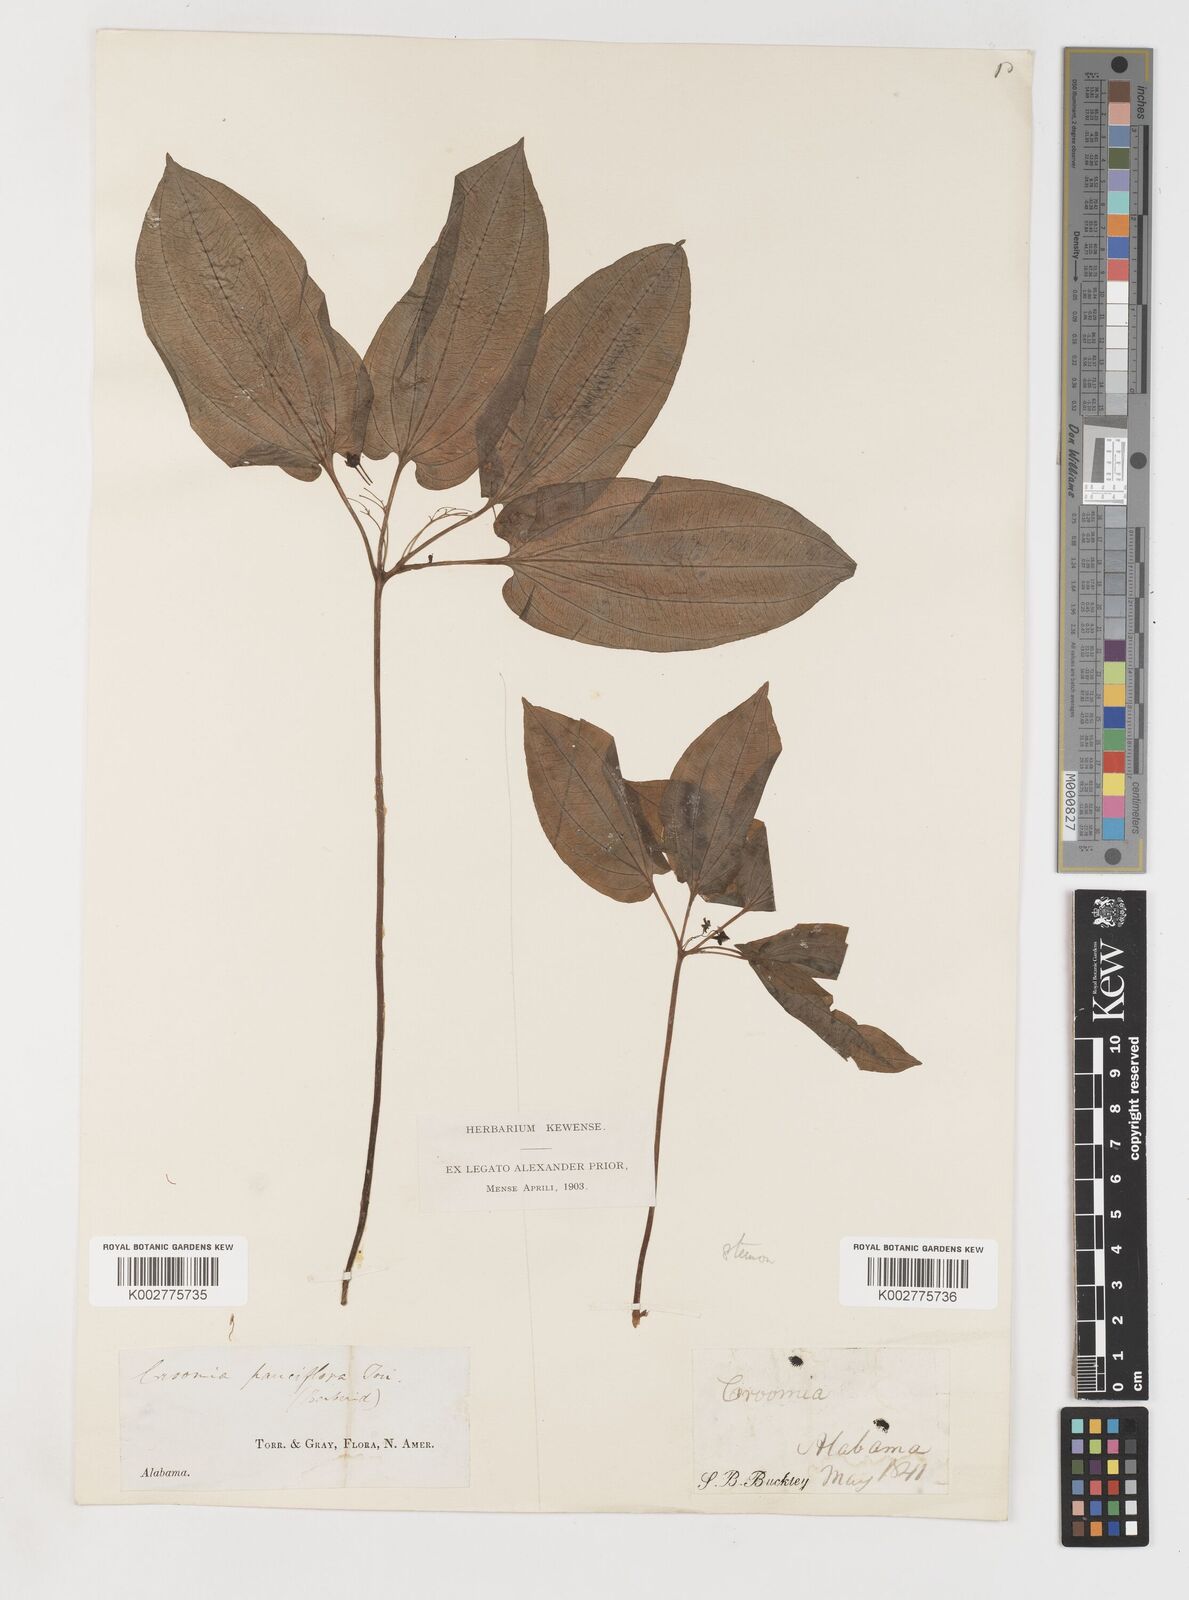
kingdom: Plantae
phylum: Tracheophyta
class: Liliopsida
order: Pandanales
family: Stemonaceae
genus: Croomia
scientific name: Croomia pauciflora
